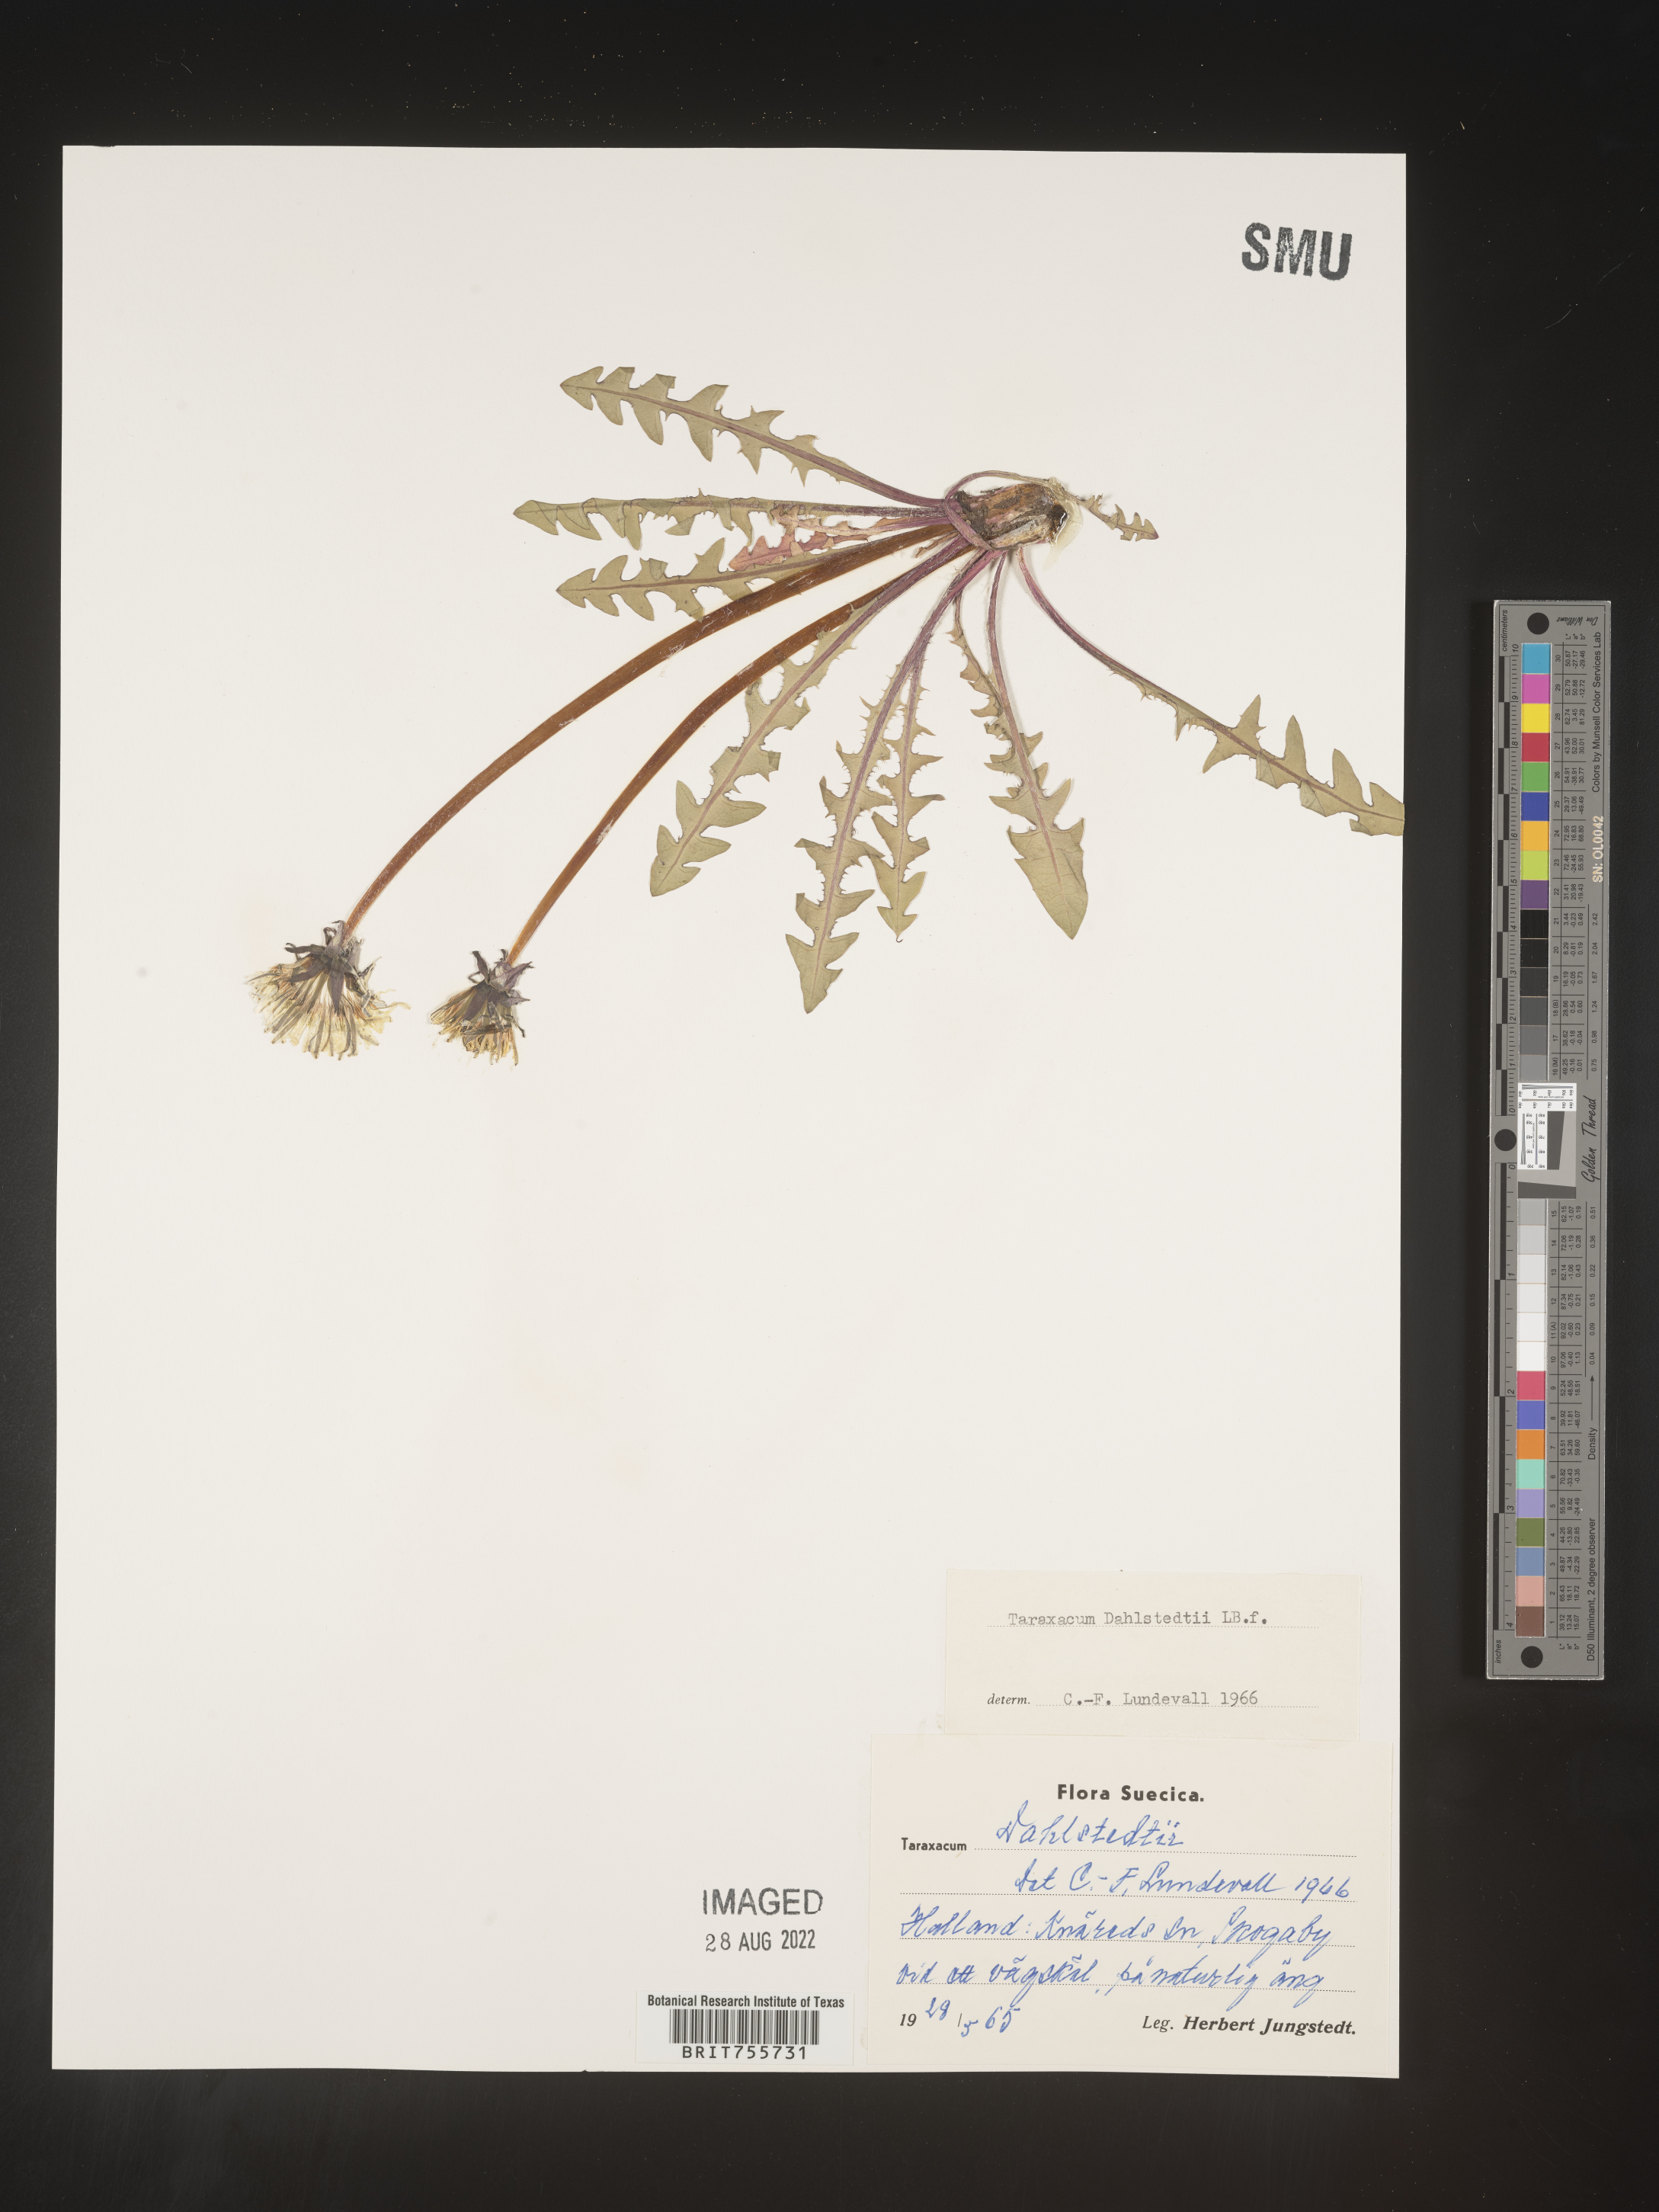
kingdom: Plantae
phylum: Tracheophyta
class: Magnoliopsida
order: Asterales
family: Asteraceae
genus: Taraxacum
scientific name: Taraxacum
